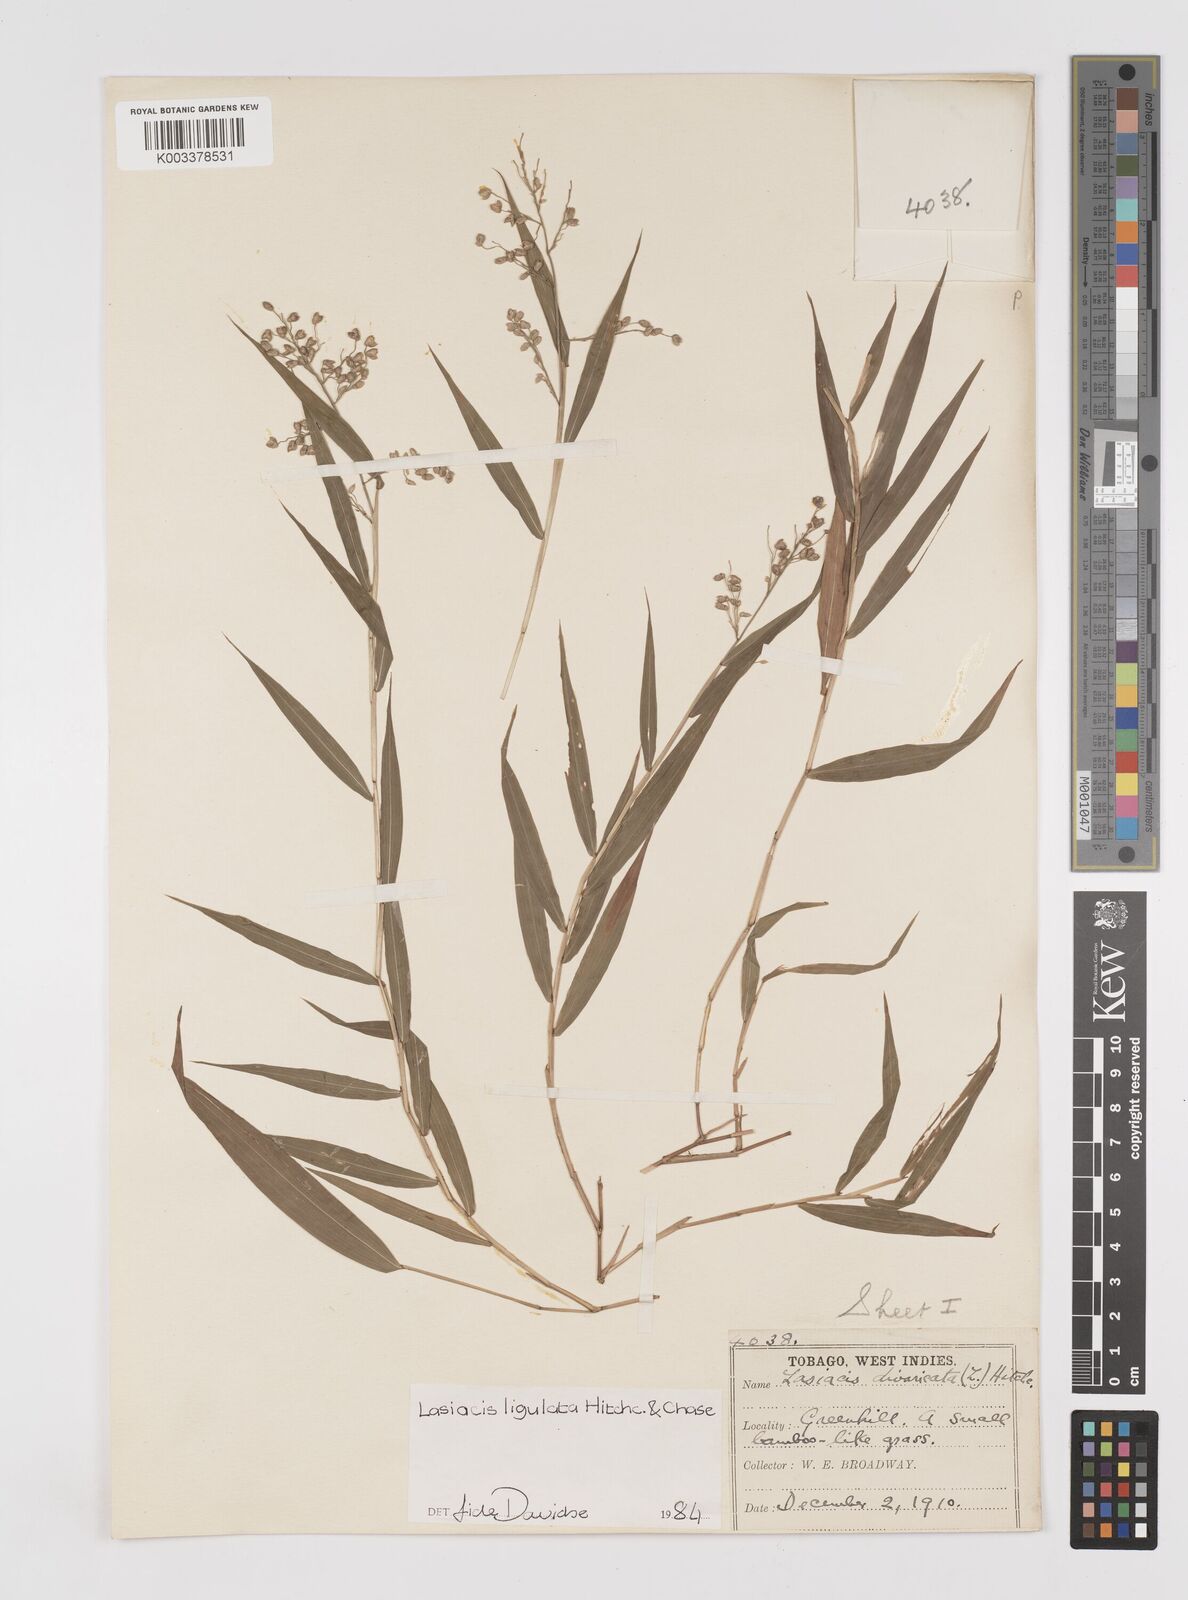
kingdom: Plantae
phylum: Tracheophyta
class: Liliopsida
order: Poales
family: Poaceae
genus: Lasiacis
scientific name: Lasiacis ligulata
